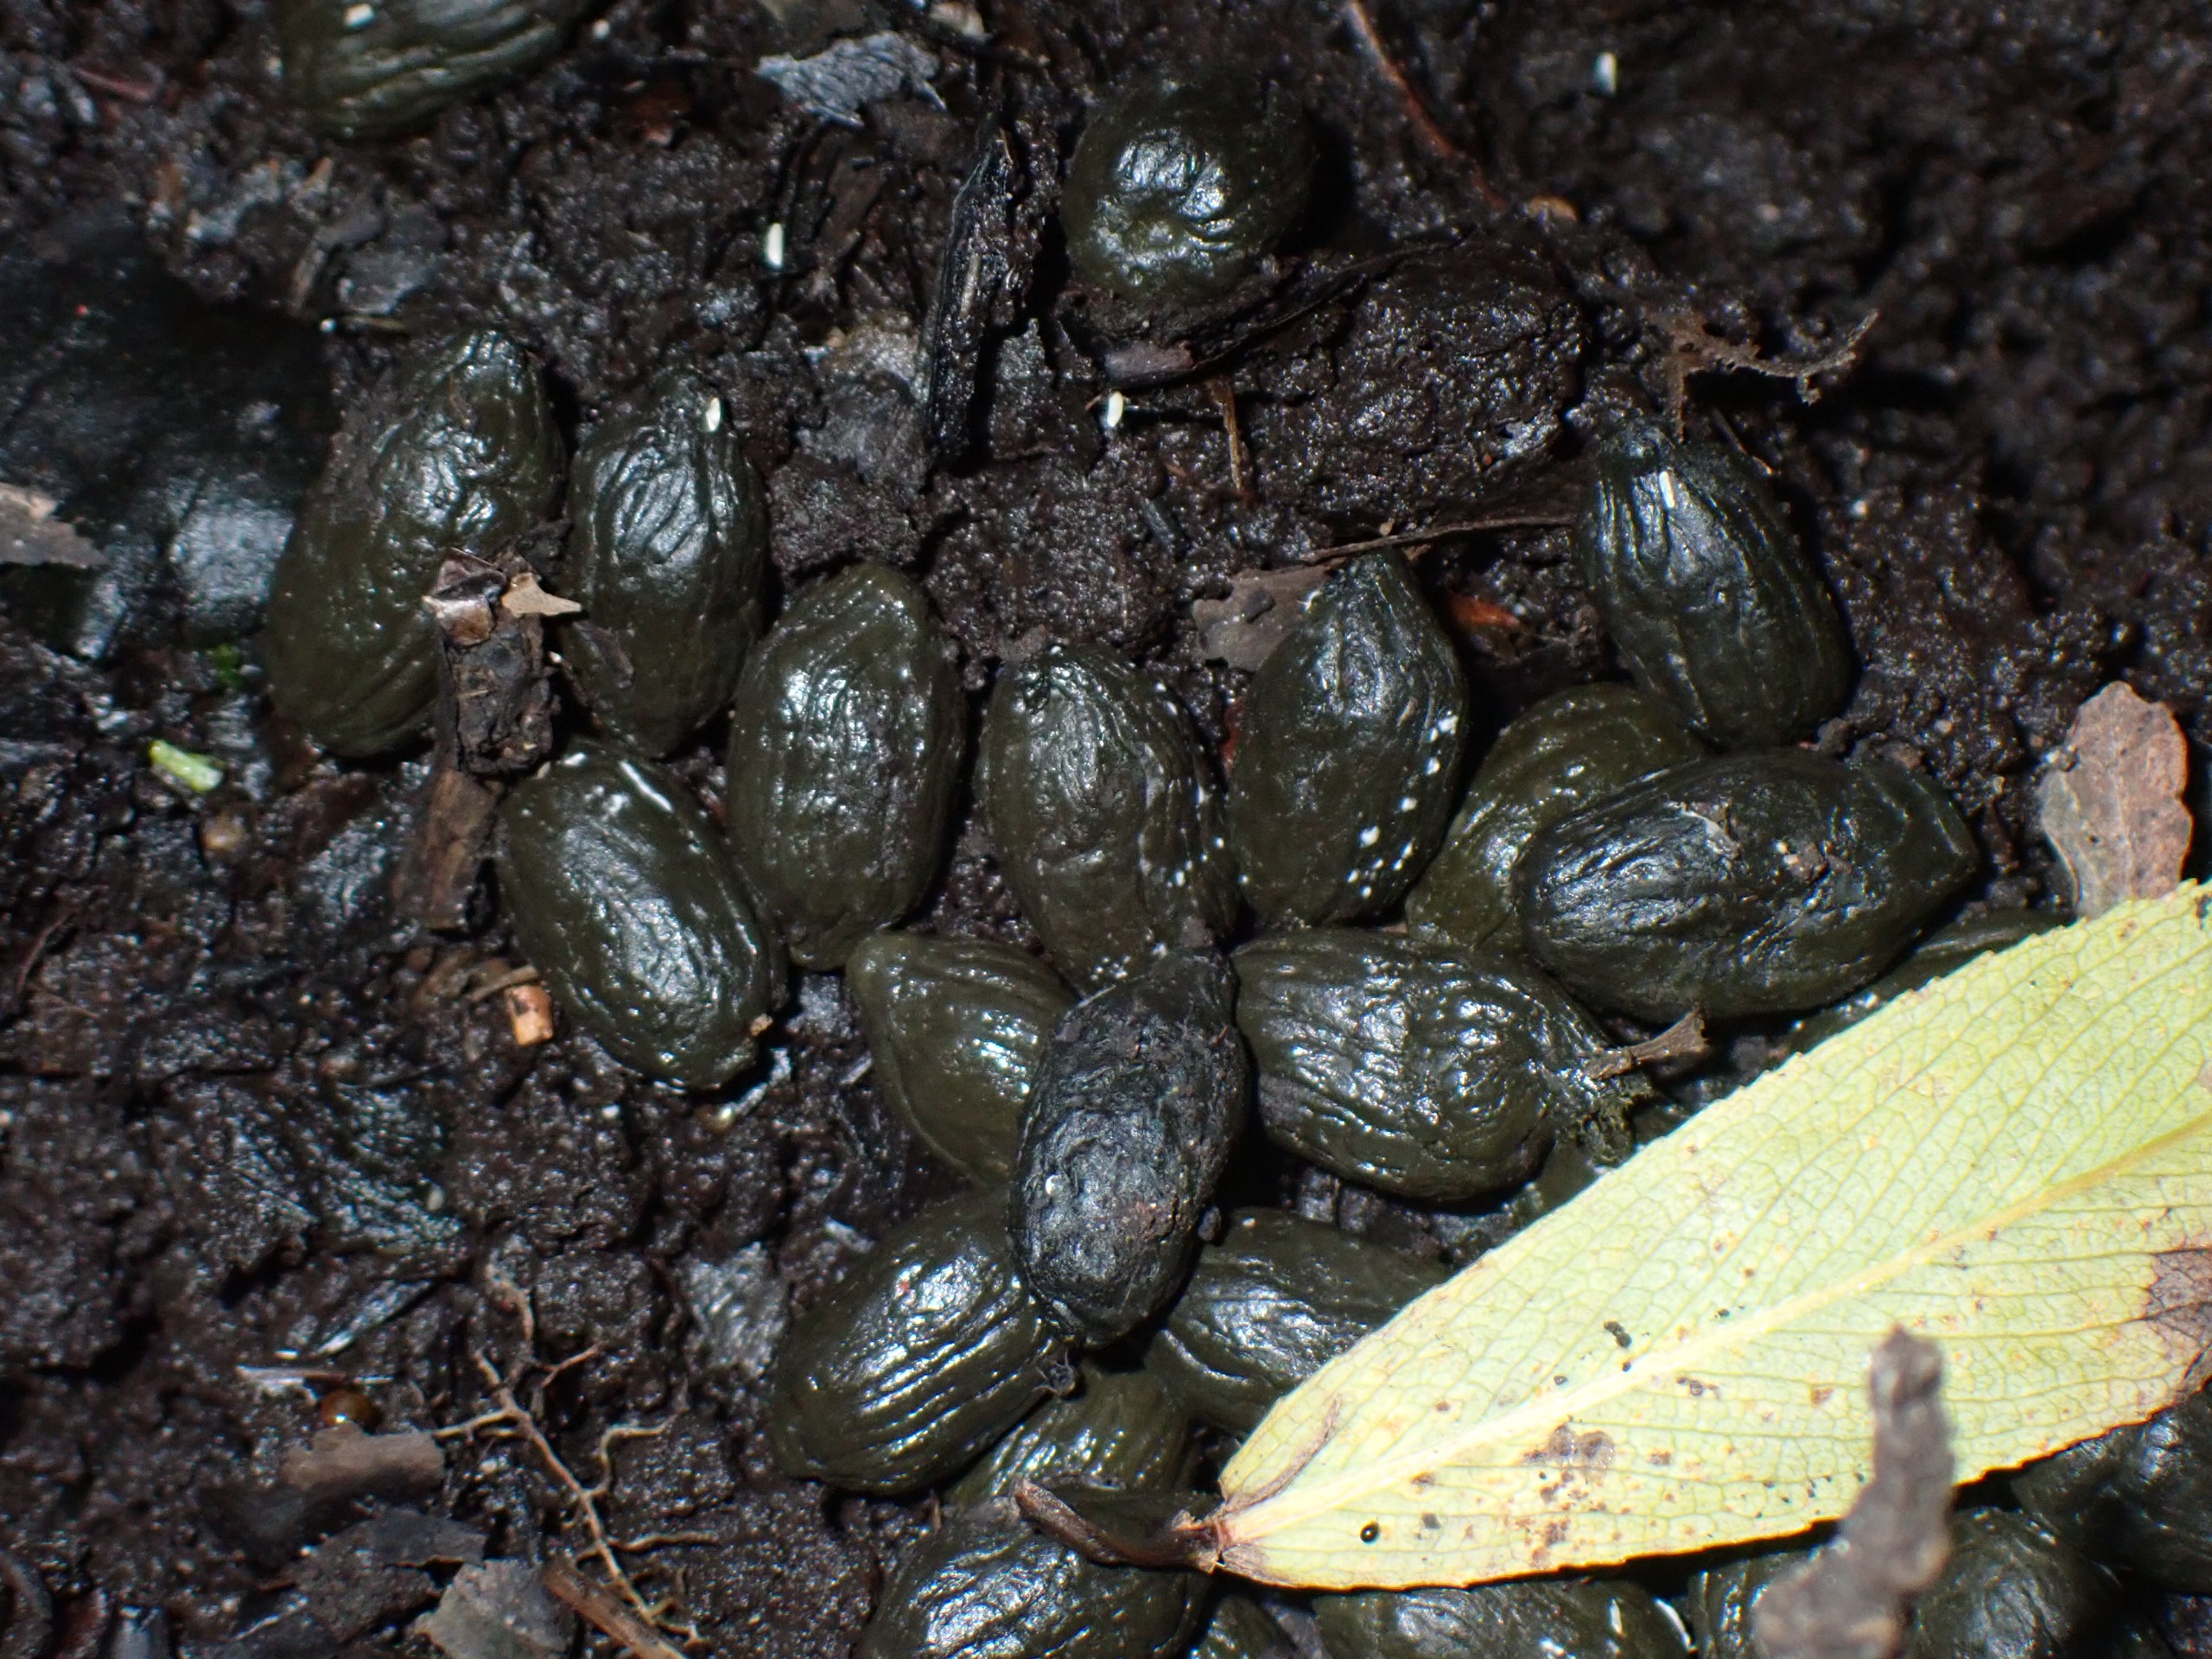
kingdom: Animalia
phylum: Chordata
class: Mammalia
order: Artiodactyla
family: Cervidae
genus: Capreolus
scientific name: Capreolus capreolus
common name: Rådyr
